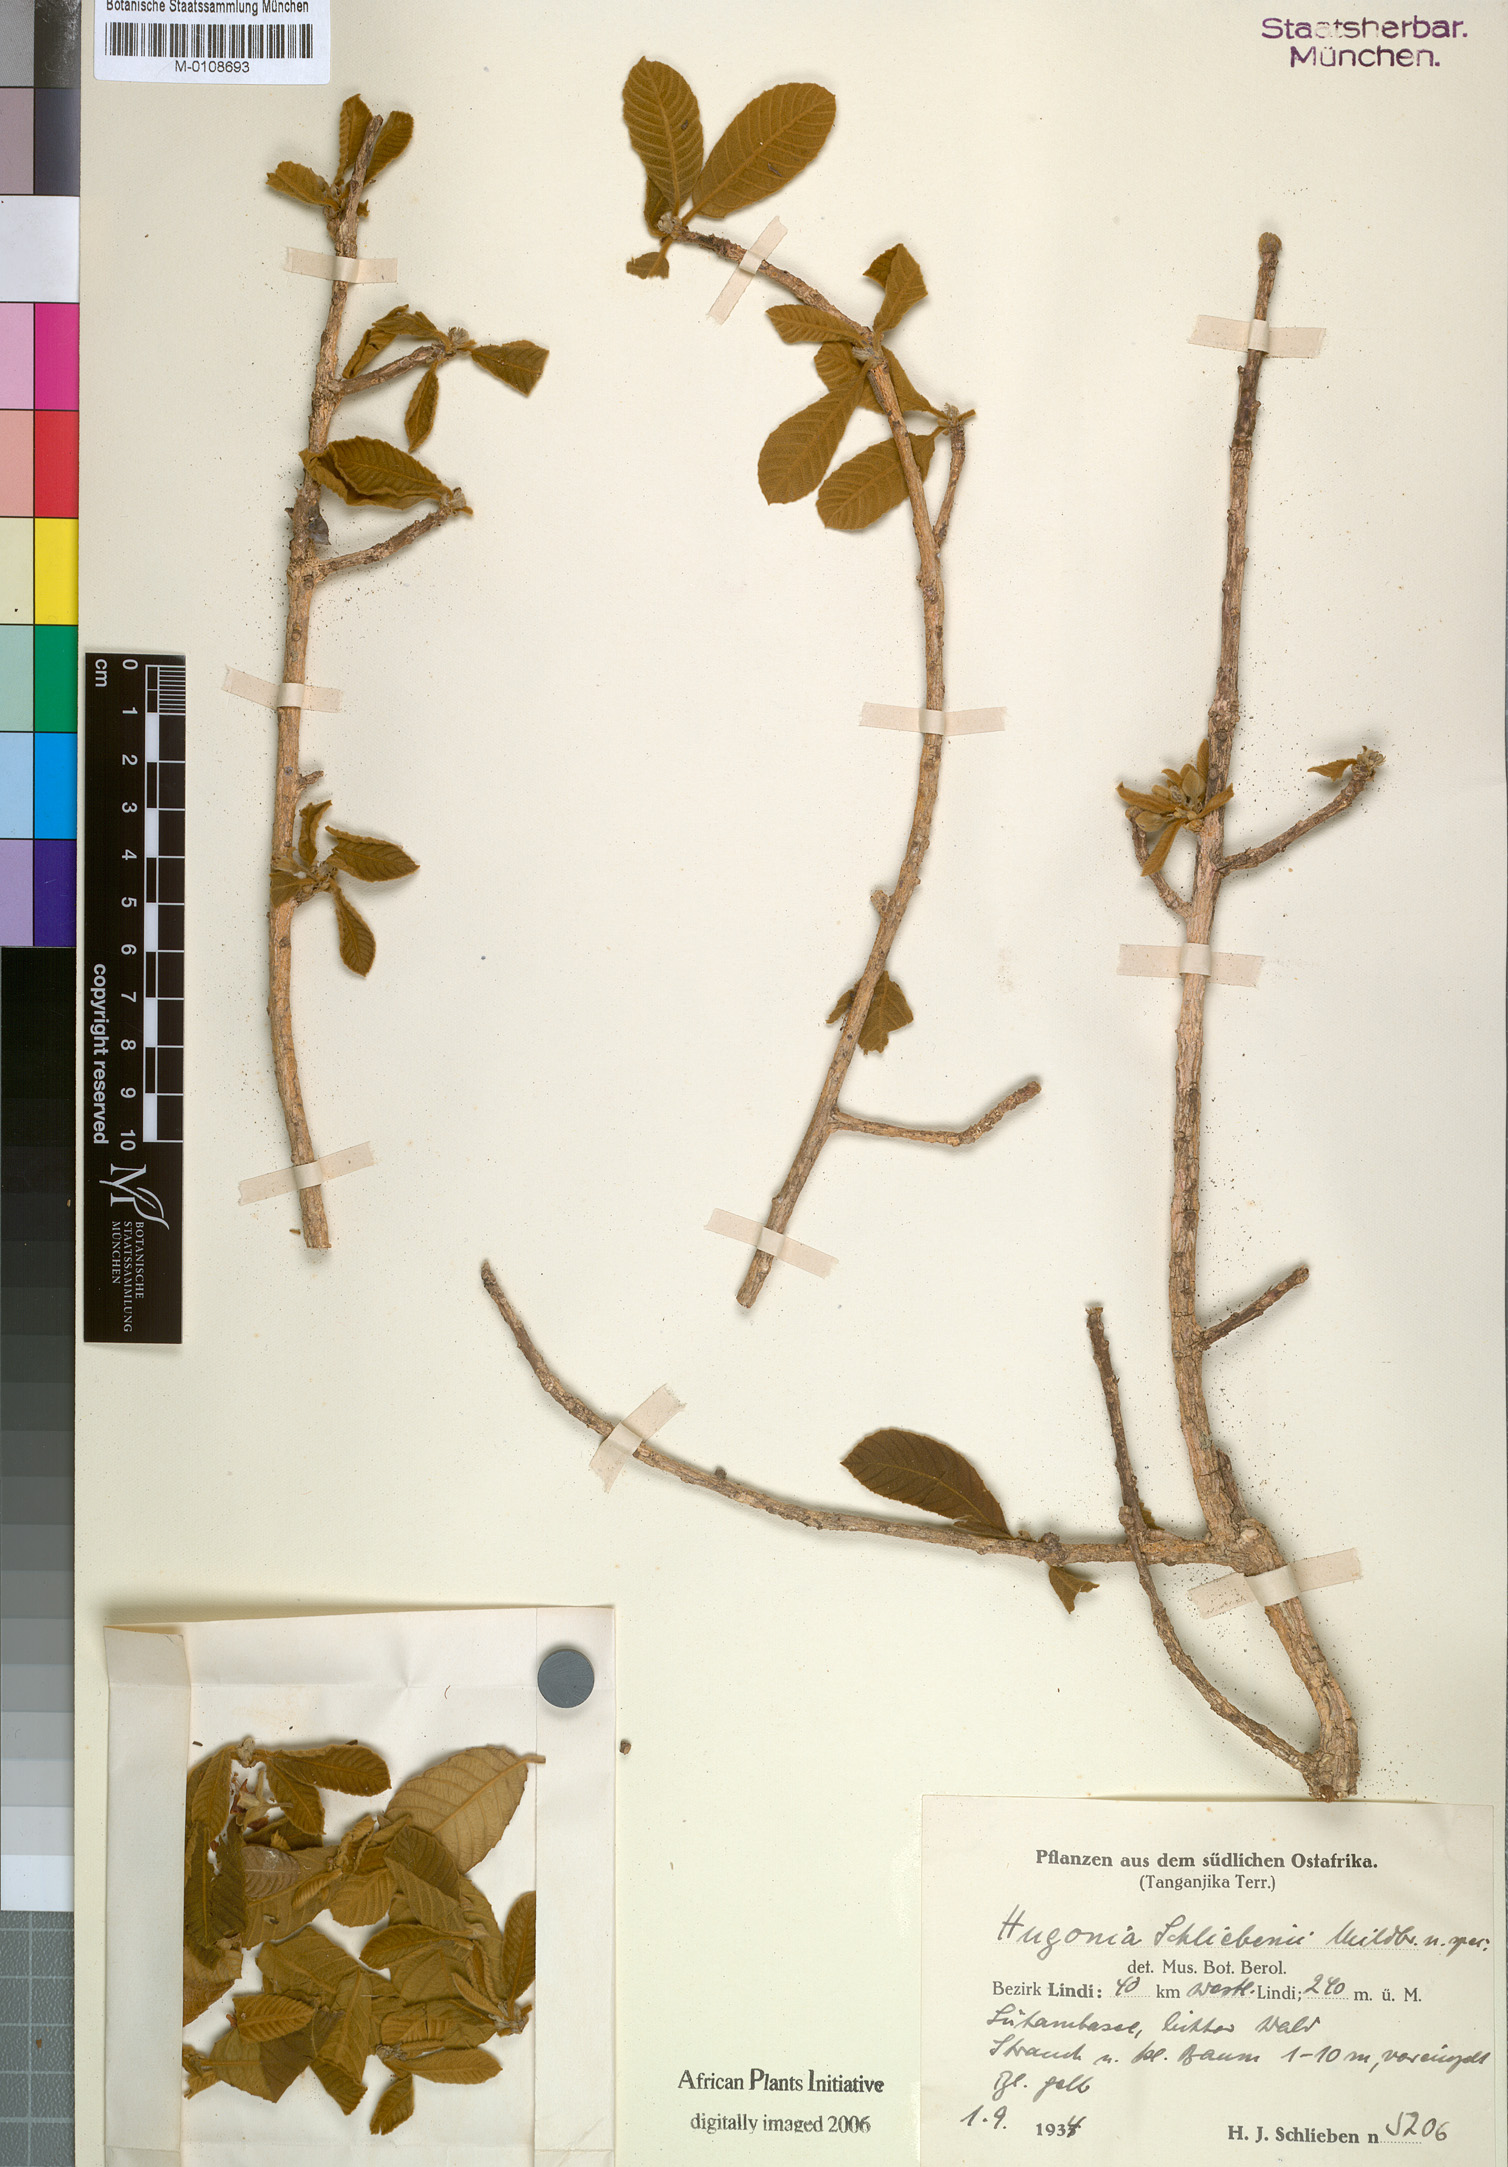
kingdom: Plantae
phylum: Tracheophyta
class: Magnoliopsida
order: Malpighiales
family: Linaceae
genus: Hugonia
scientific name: Hugonia busseana
